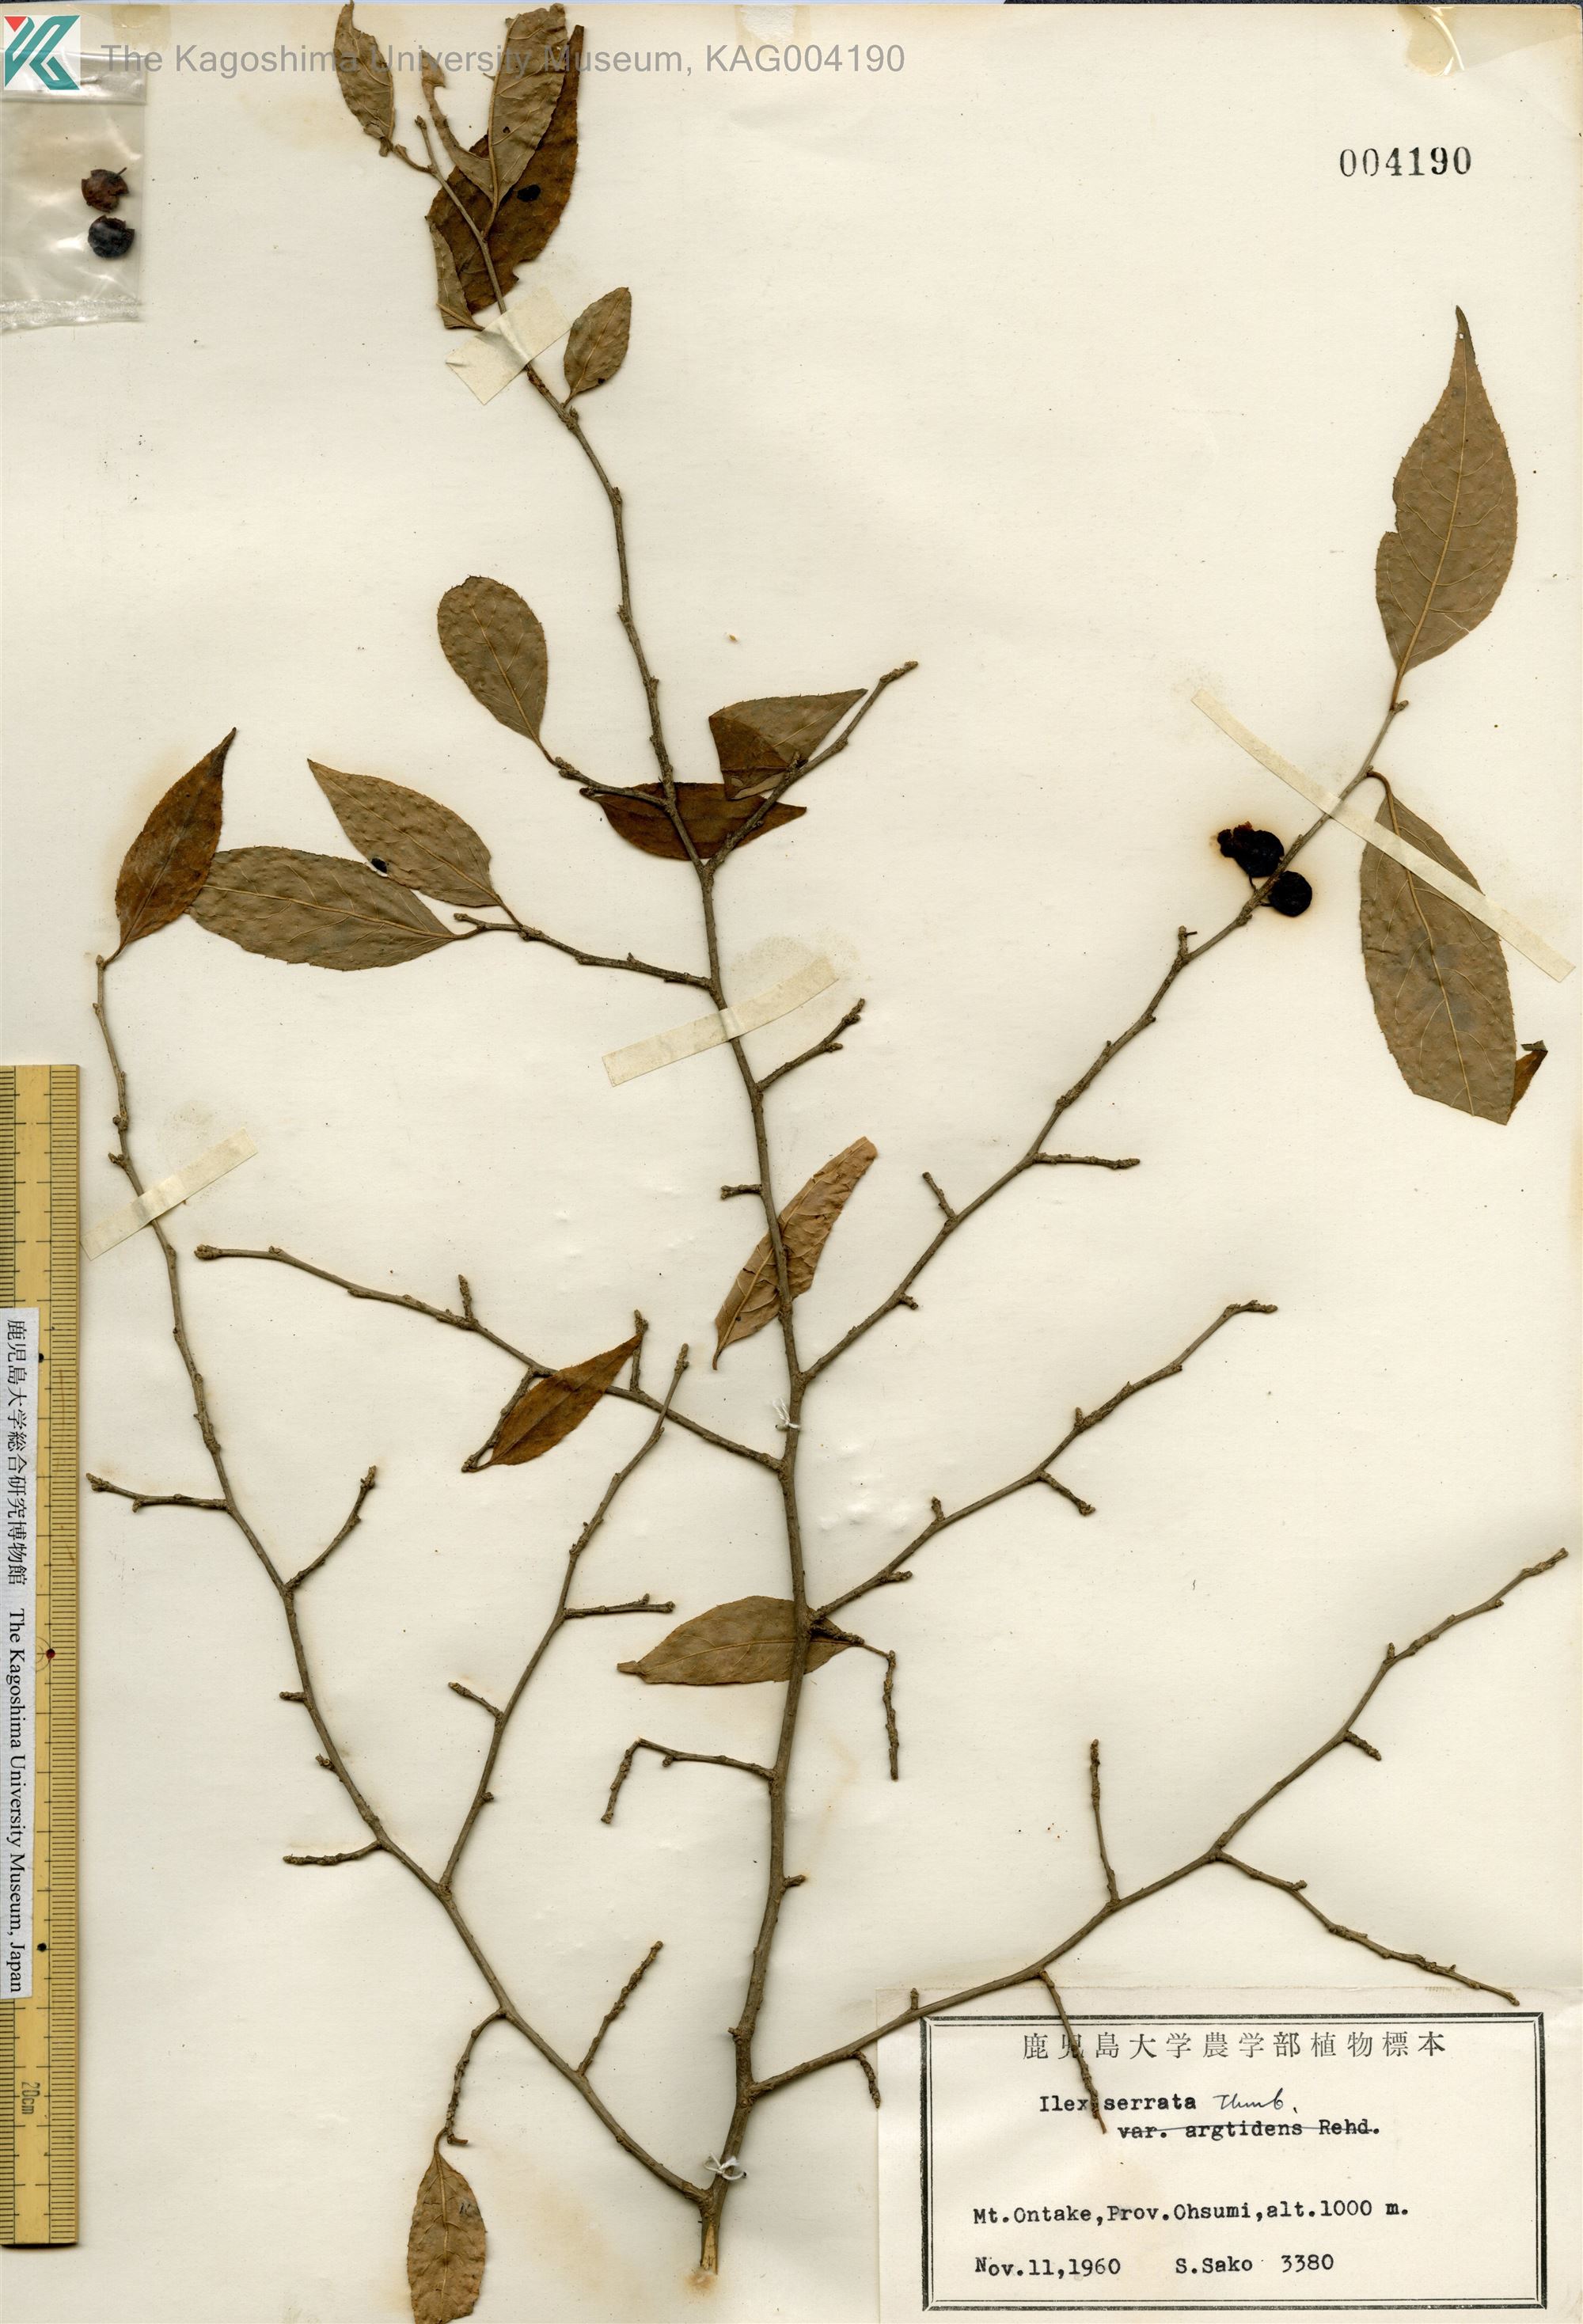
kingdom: Plantae
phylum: Tracheophyta
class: Magnoliopsida
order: Aquifoliales
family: Aquifoliaceae
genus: Ilex
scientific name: Ilex serrata
